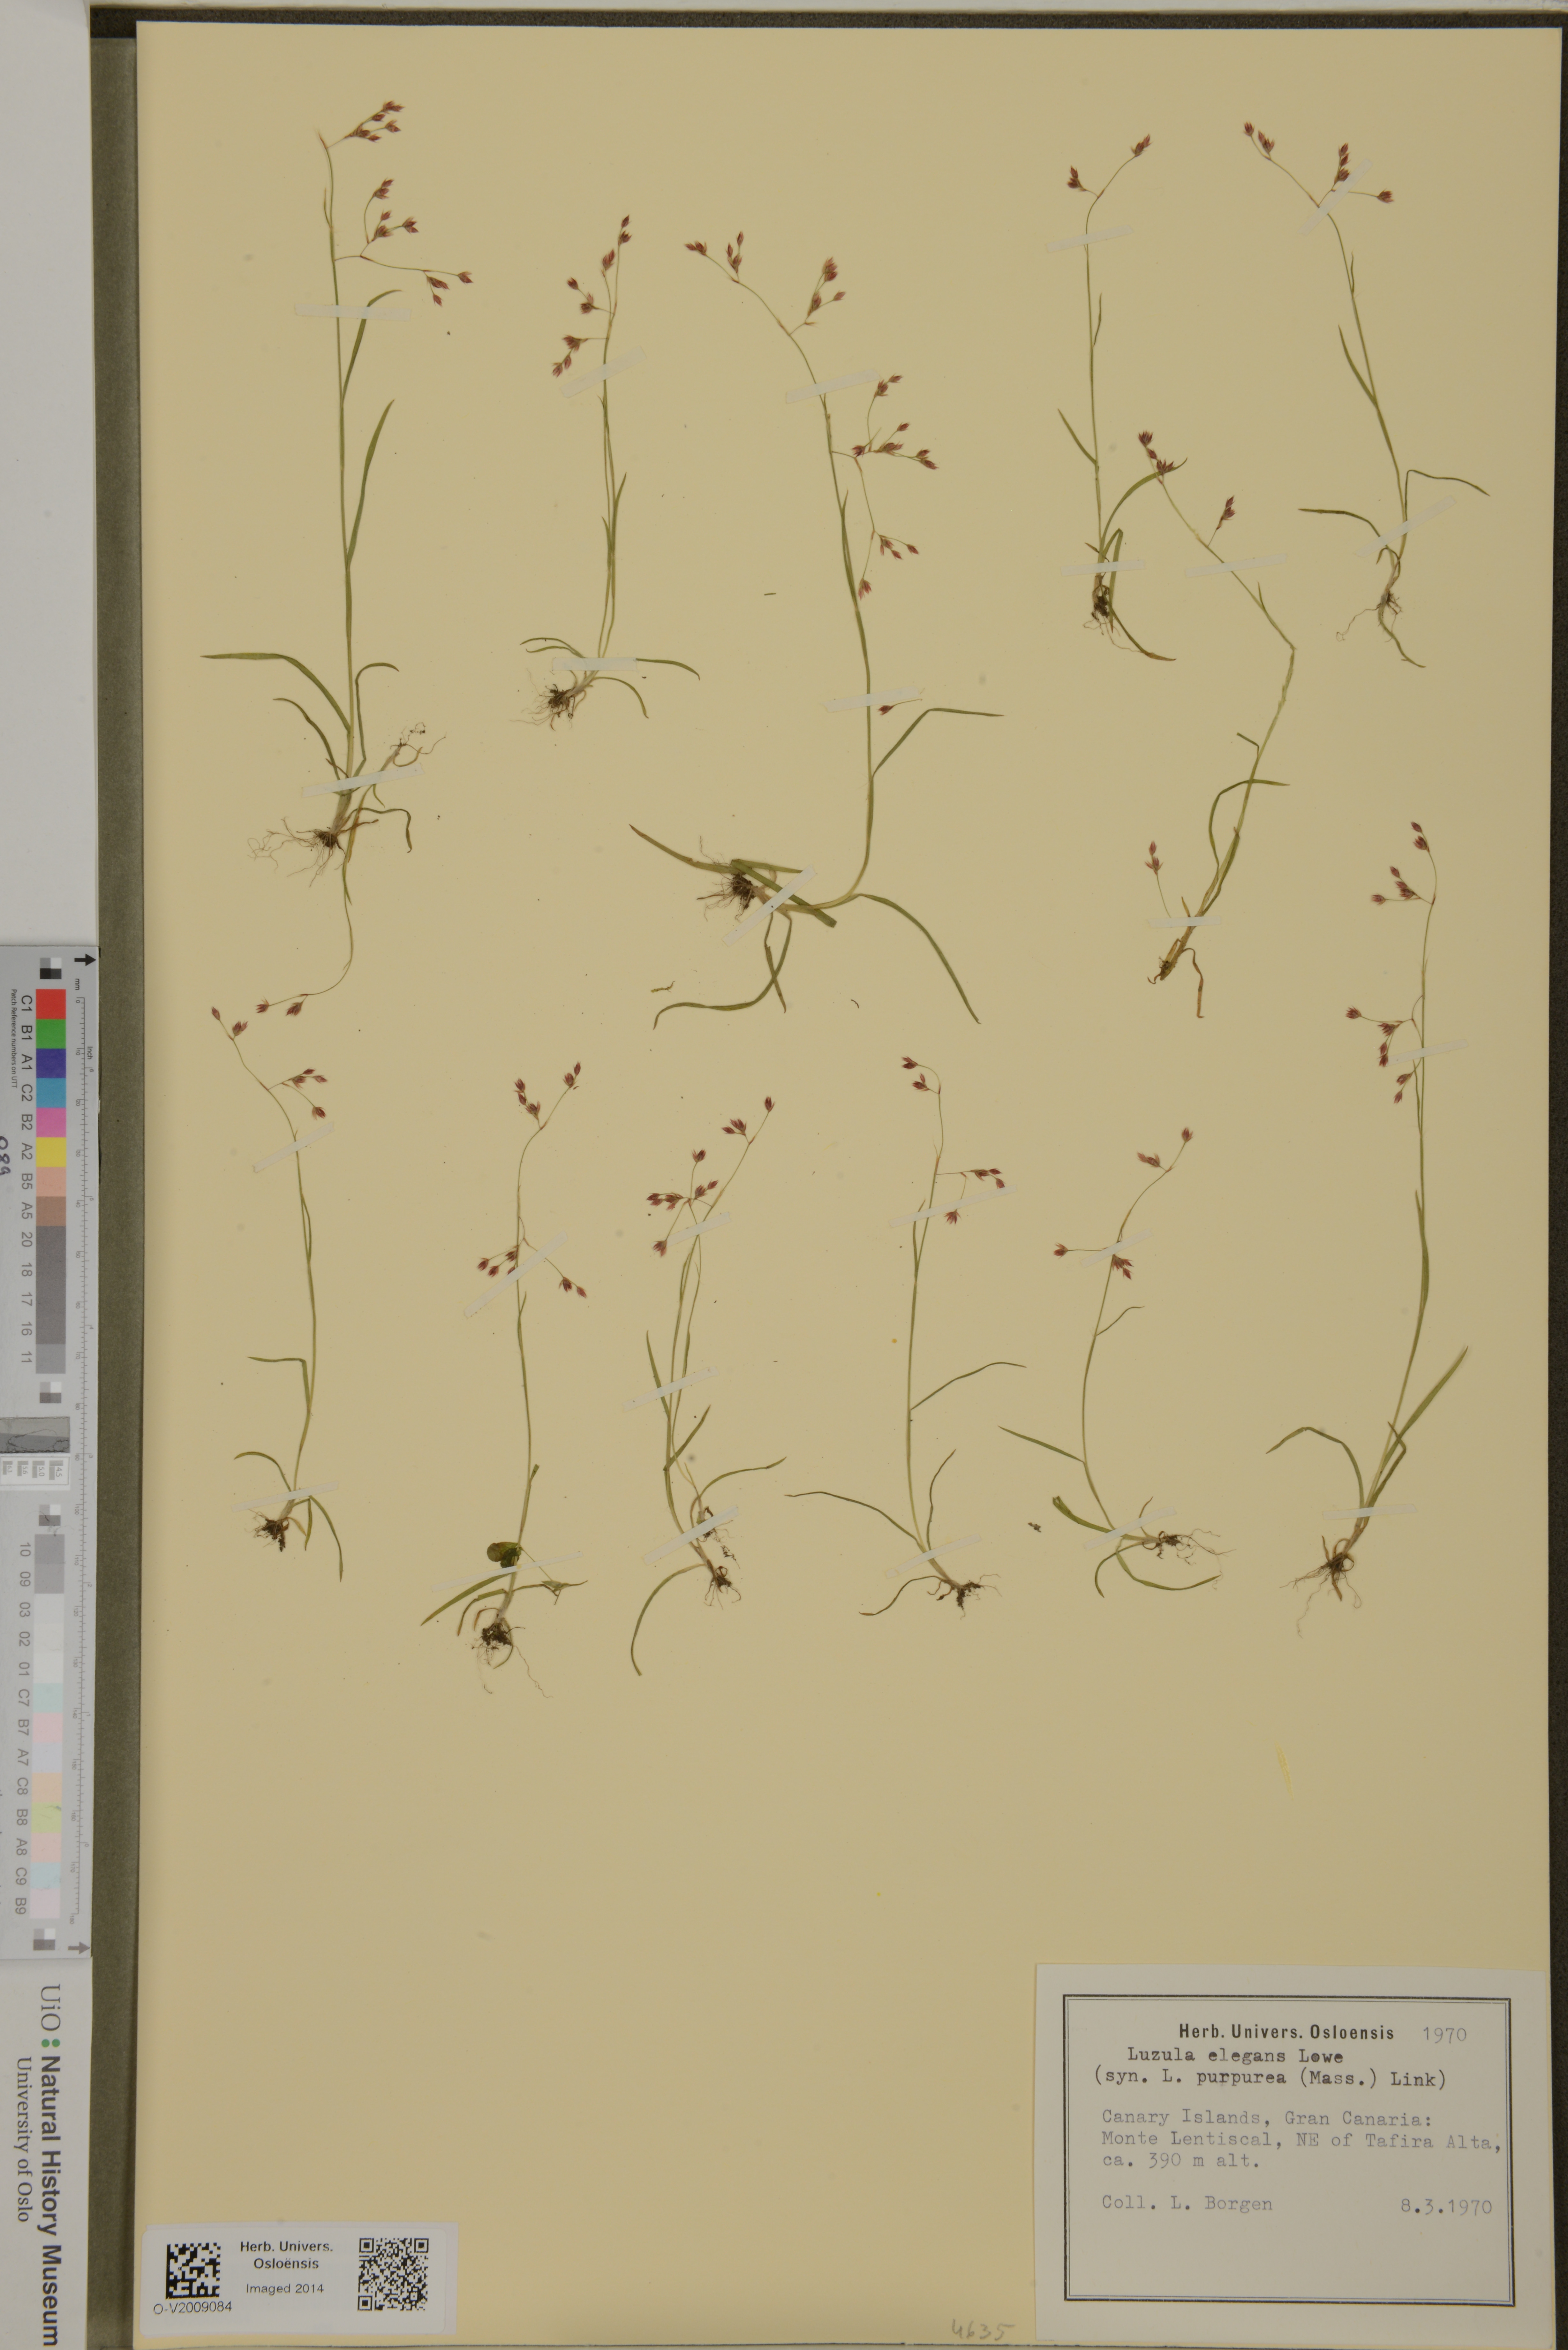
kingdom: Plantae
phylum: Tracheophyta
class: Liliopsida
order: Poales
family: Juncaceae
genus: Luzula
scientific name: Luzula elegans
